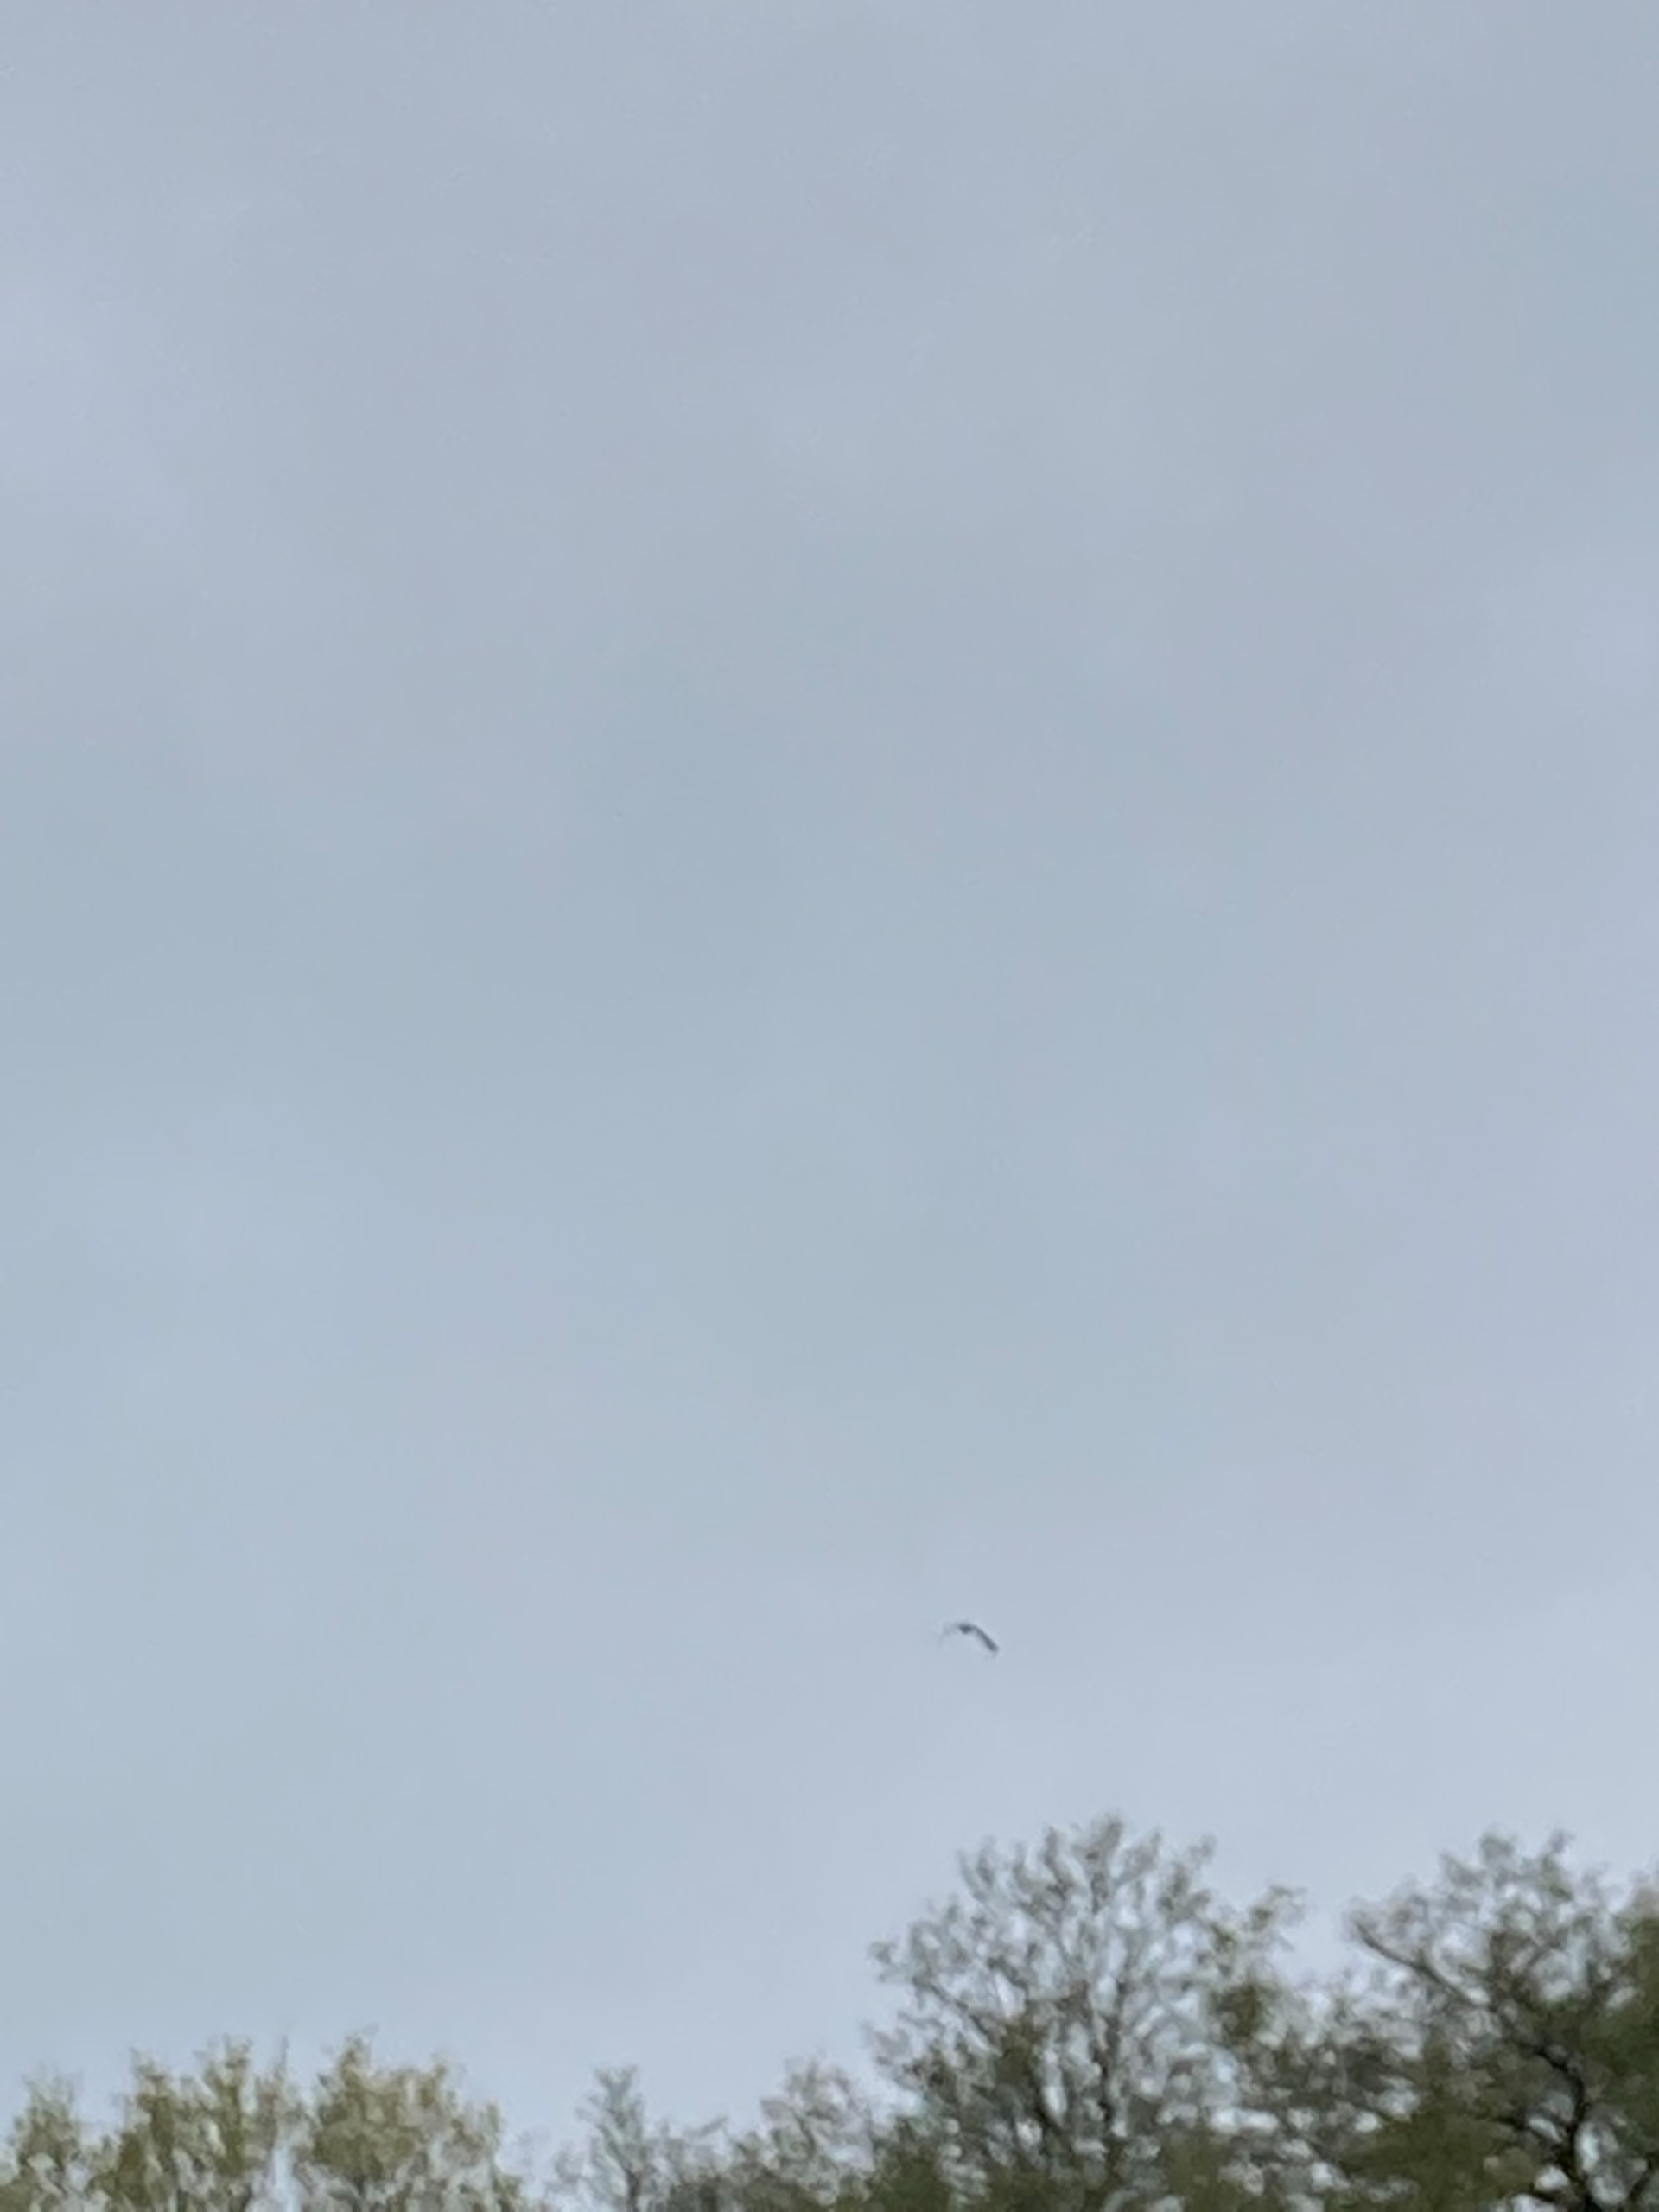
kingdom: Animalia
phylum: Chordata
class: Aves
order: Charadriiformes
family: Charadriidae
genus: Vanellus
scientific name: Vanellus vanellus
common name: Vibe
